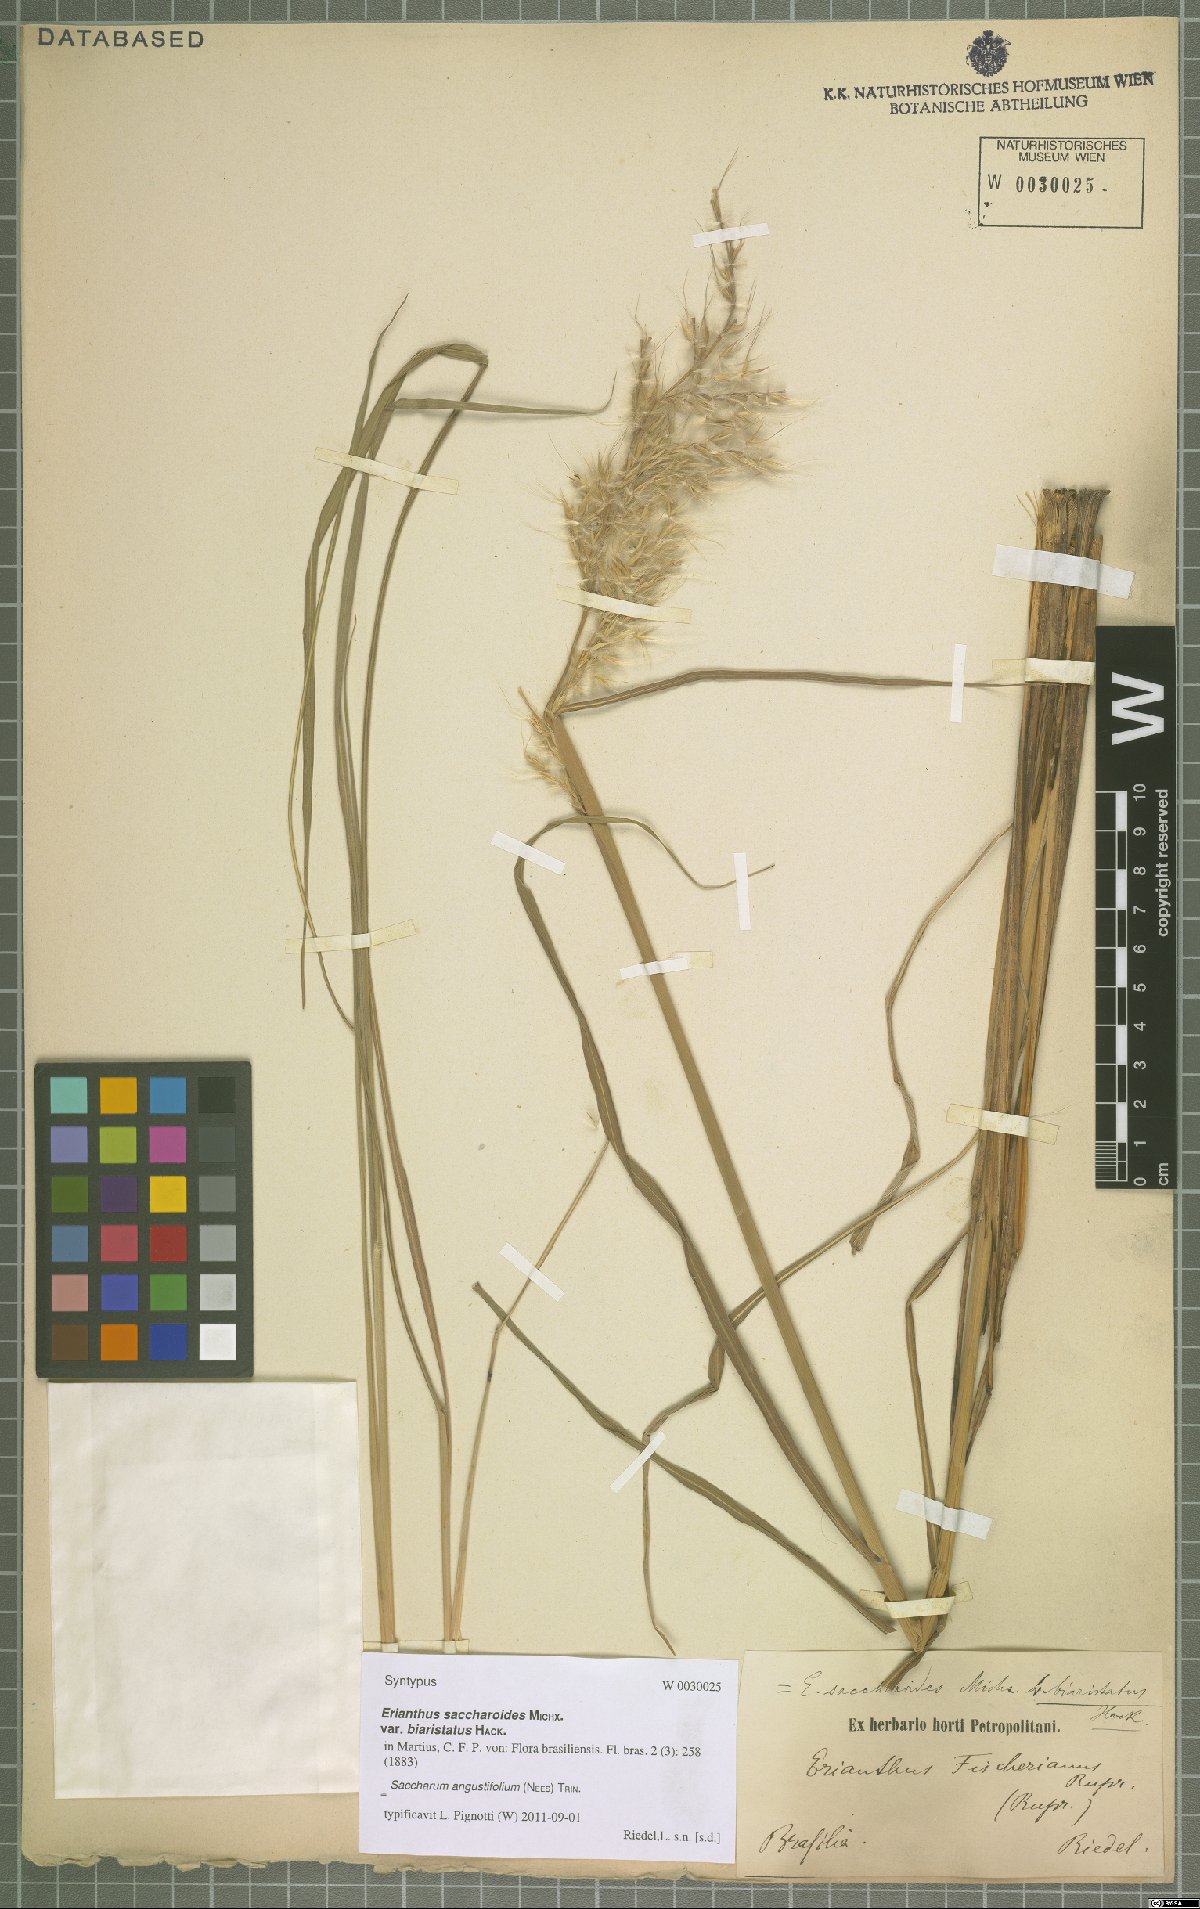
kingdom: Plantae
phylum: Tracheophyta
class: Liliopsida
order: Poales
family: Poaceae
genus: Saccharum
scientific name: Saccharum angustifolium
